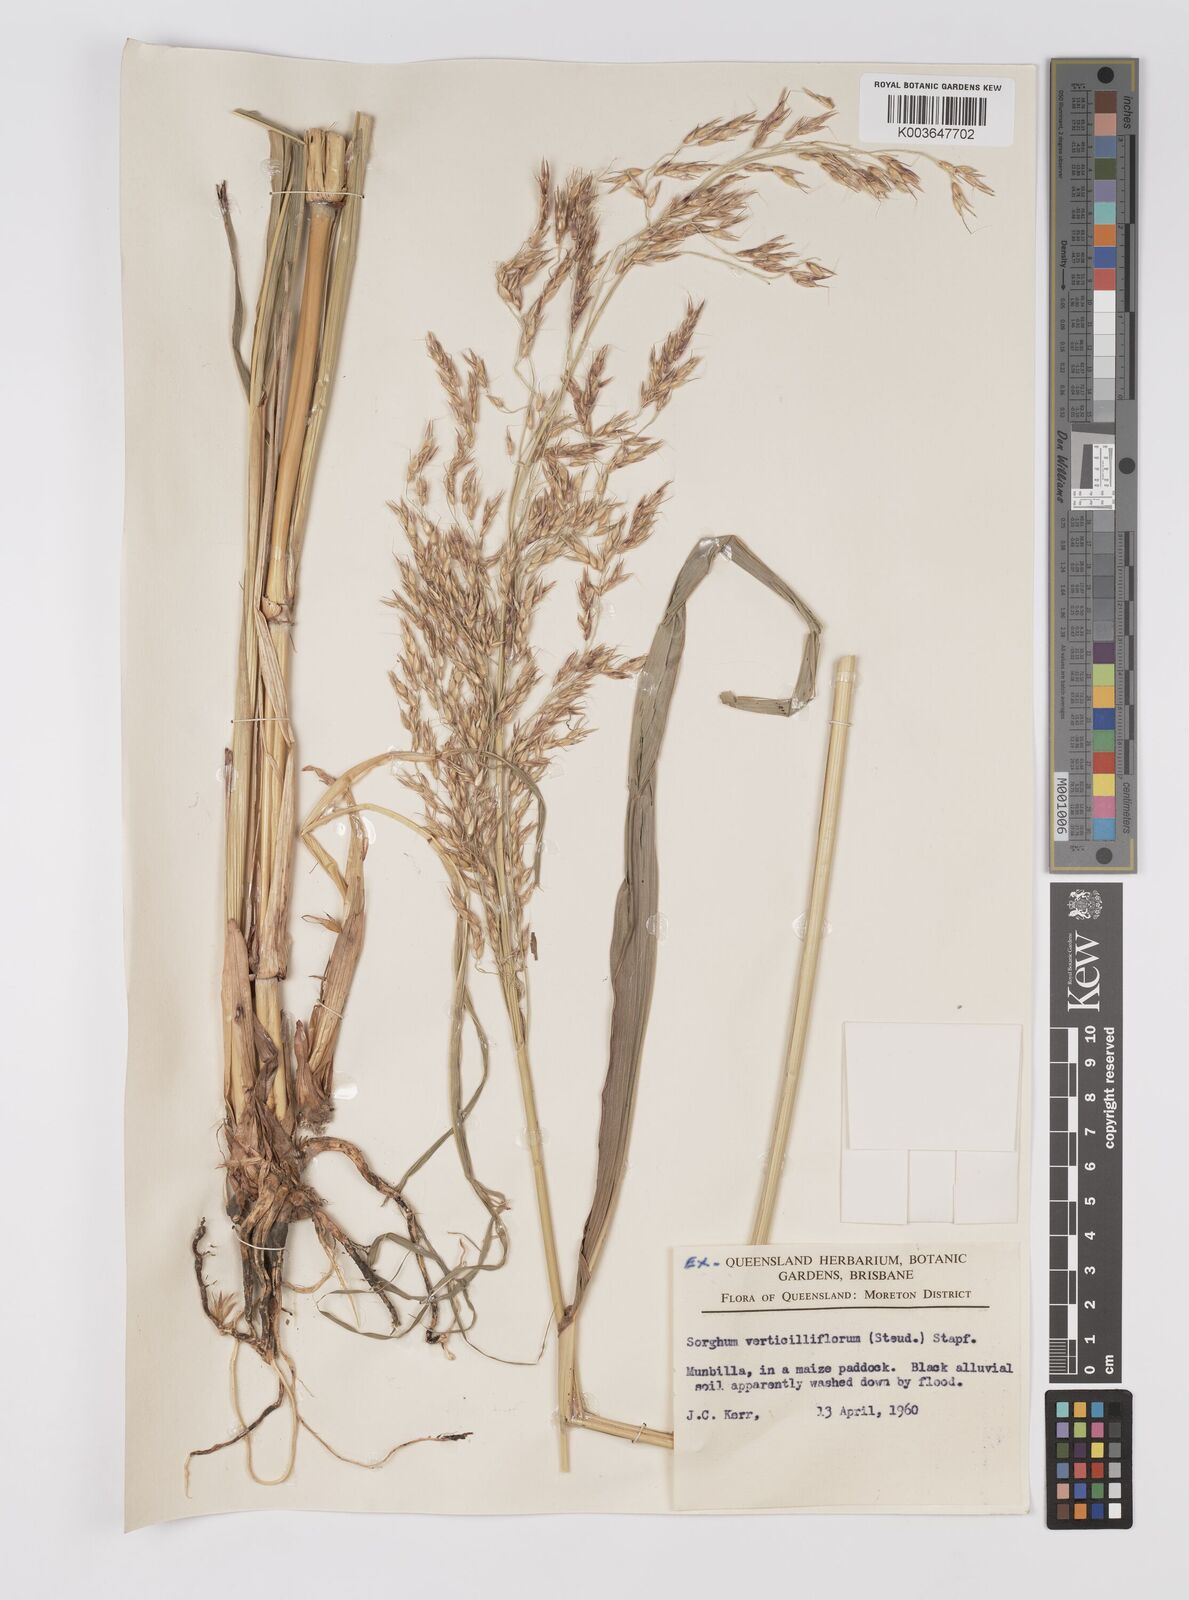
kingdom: Plantae
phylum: Tracheophyta
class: Liliopsida
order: Poales
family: Poaceae
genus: Sorghum
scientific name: Sorghum arundinaceum
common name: Sorghum
